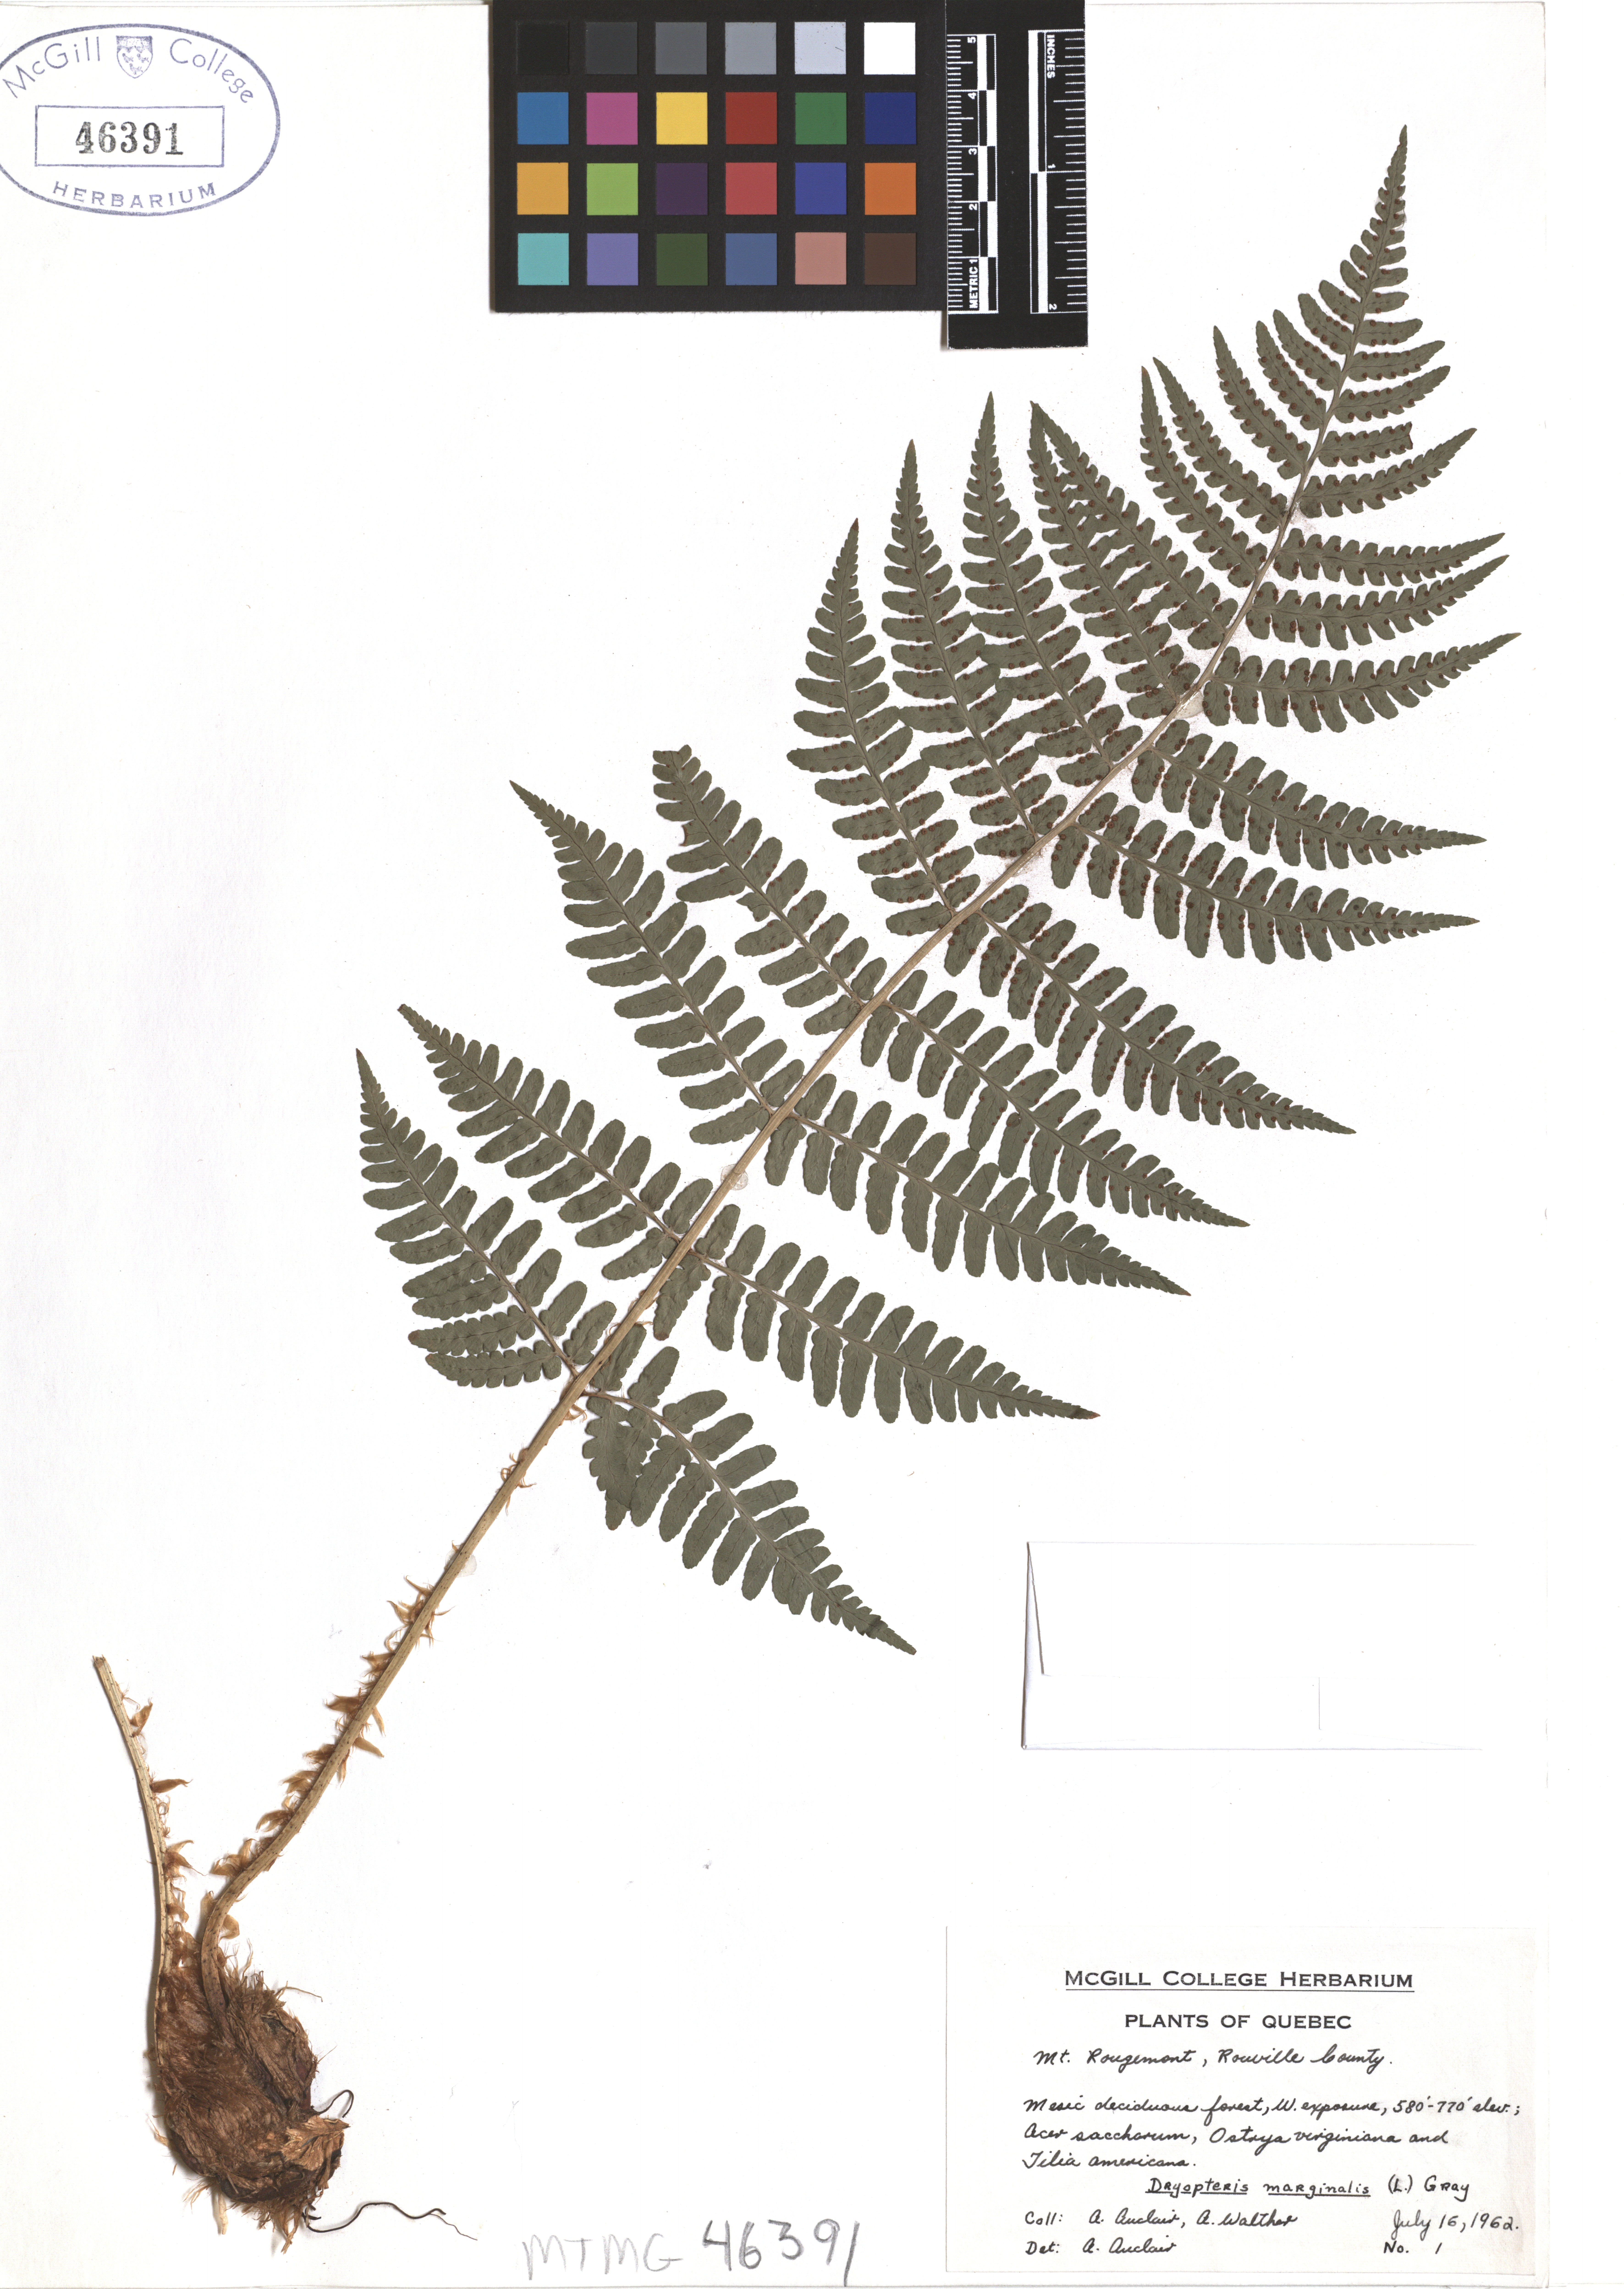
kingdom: Plantae
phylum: Tracheophyta
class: Polypodiopsida
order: Polypodiales
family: Dryopteridaceae
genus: Dryopteris
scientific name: Dryopteris marginalis
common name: Marginal wood fern
